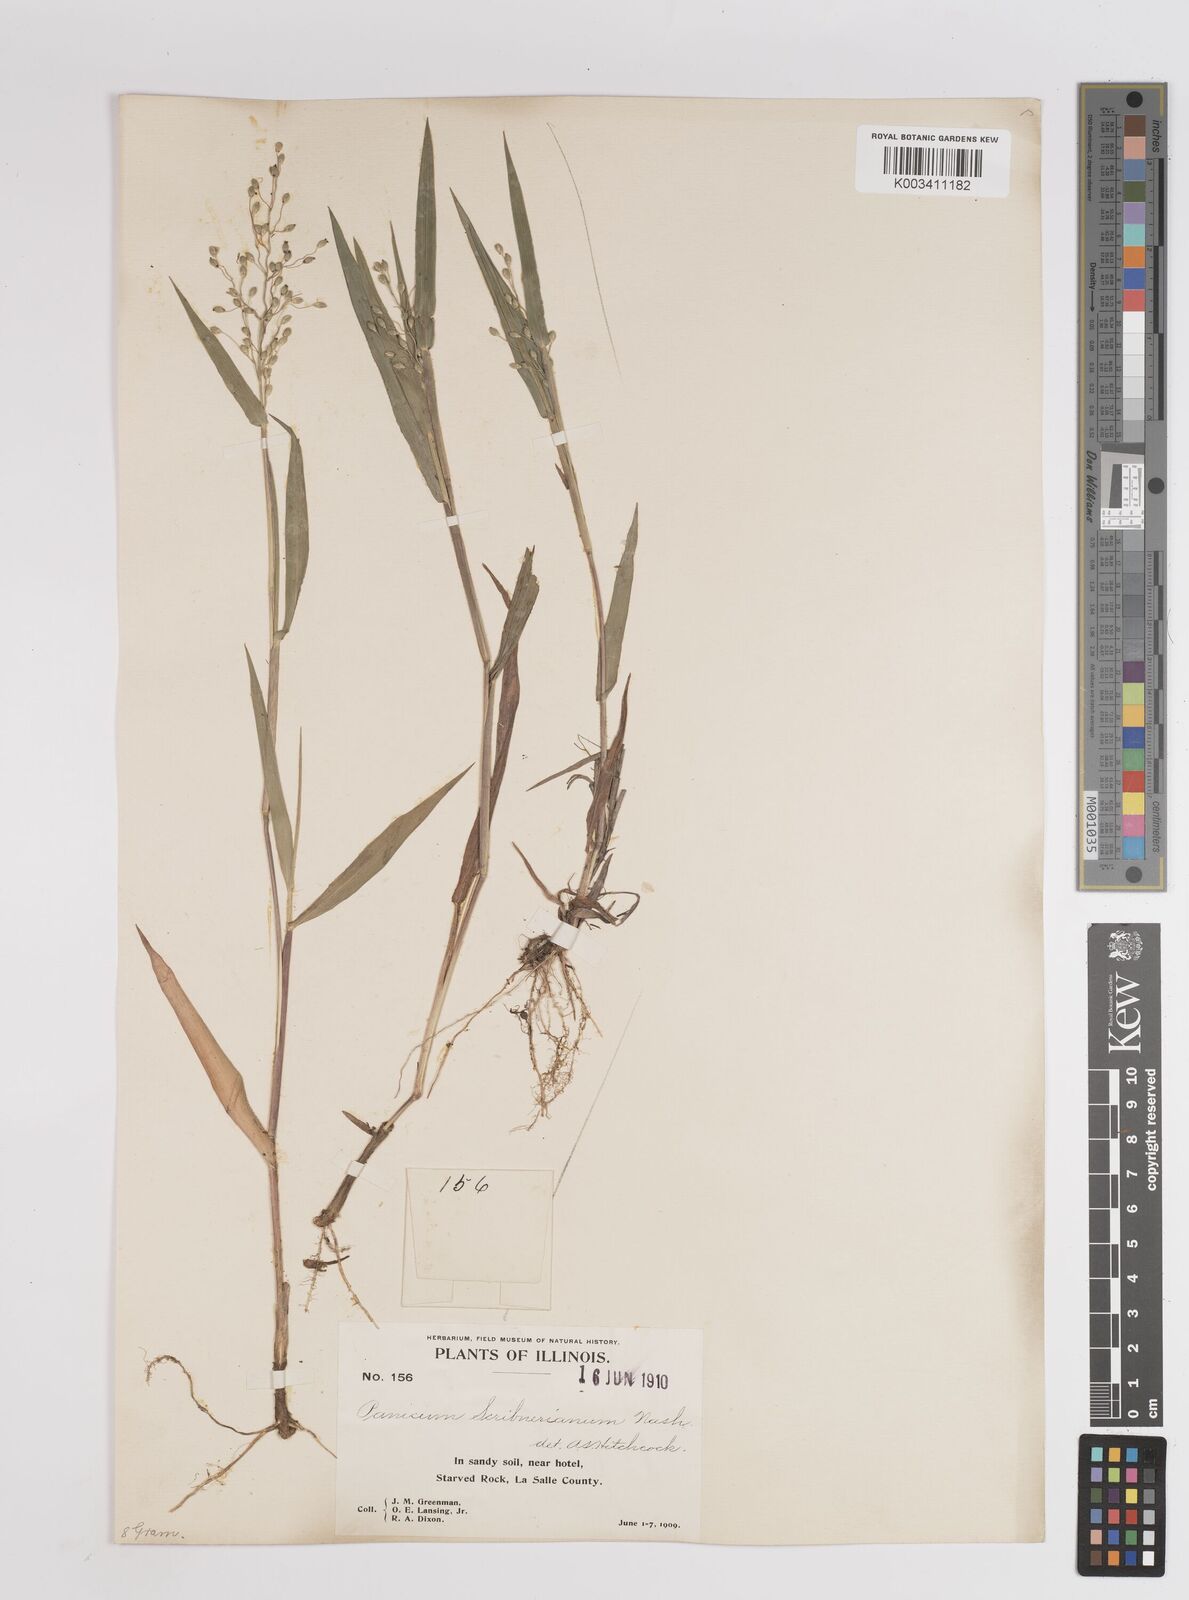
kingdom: Plantae
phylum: Tracheophyta
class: Liliopsida
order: Poales
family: Poaceae
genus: Dichanthelium
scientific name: Dichanthelium scribnerianum
